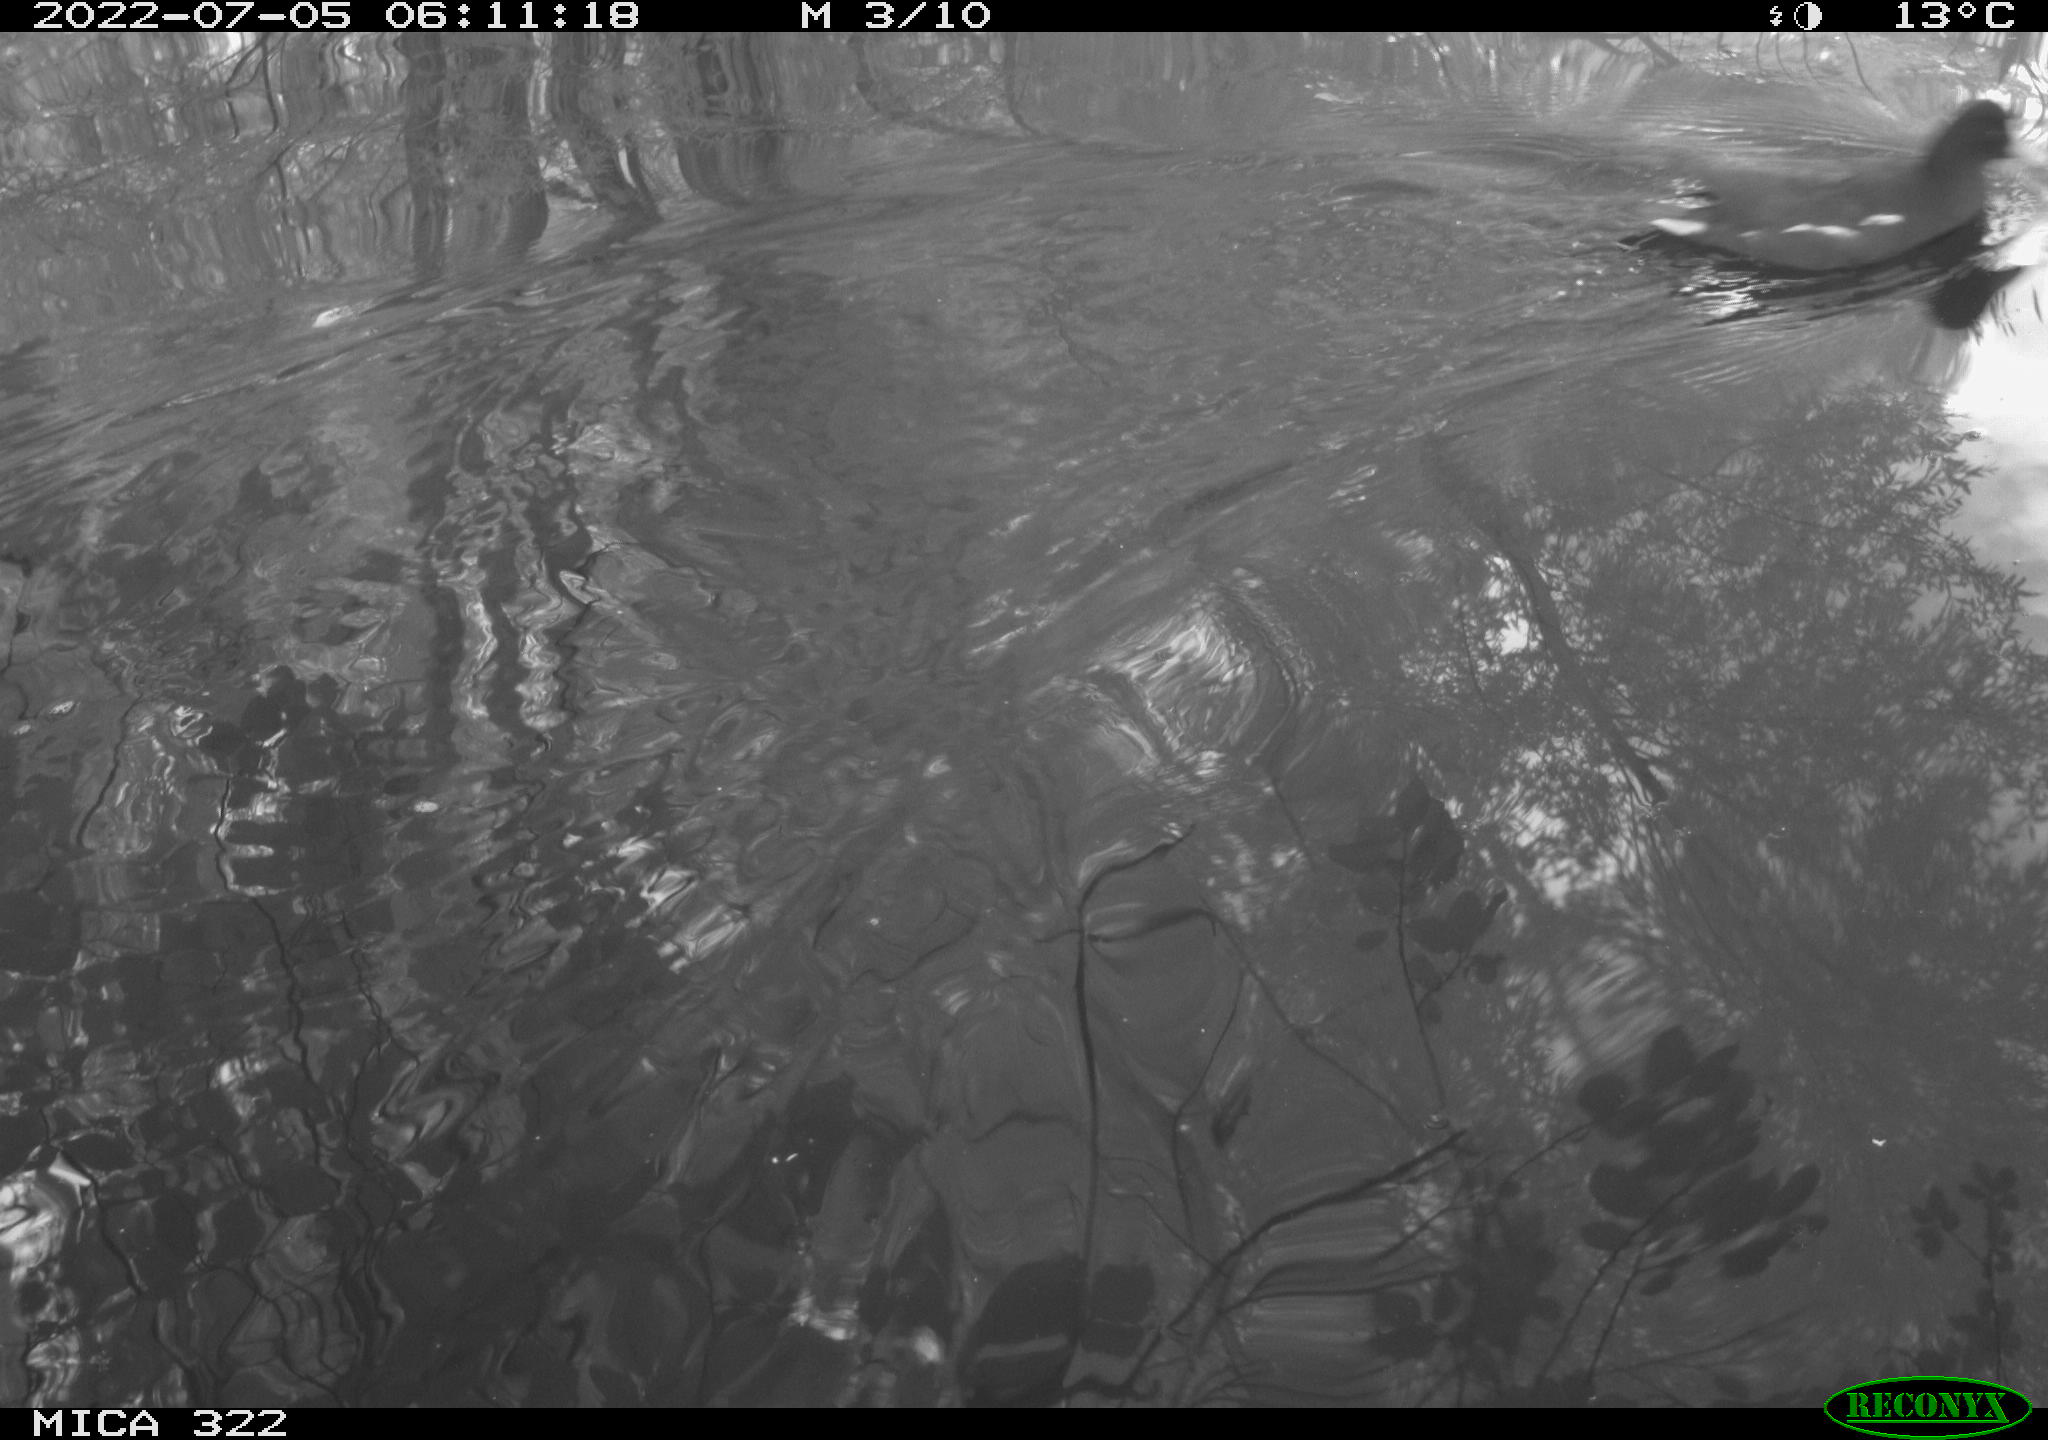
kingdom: Animalia
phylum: Chordata
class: Aves
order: Gruiformes
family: Rallidae
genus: Gallinula
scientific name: Gallinula chloropus
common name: Common moorhen
